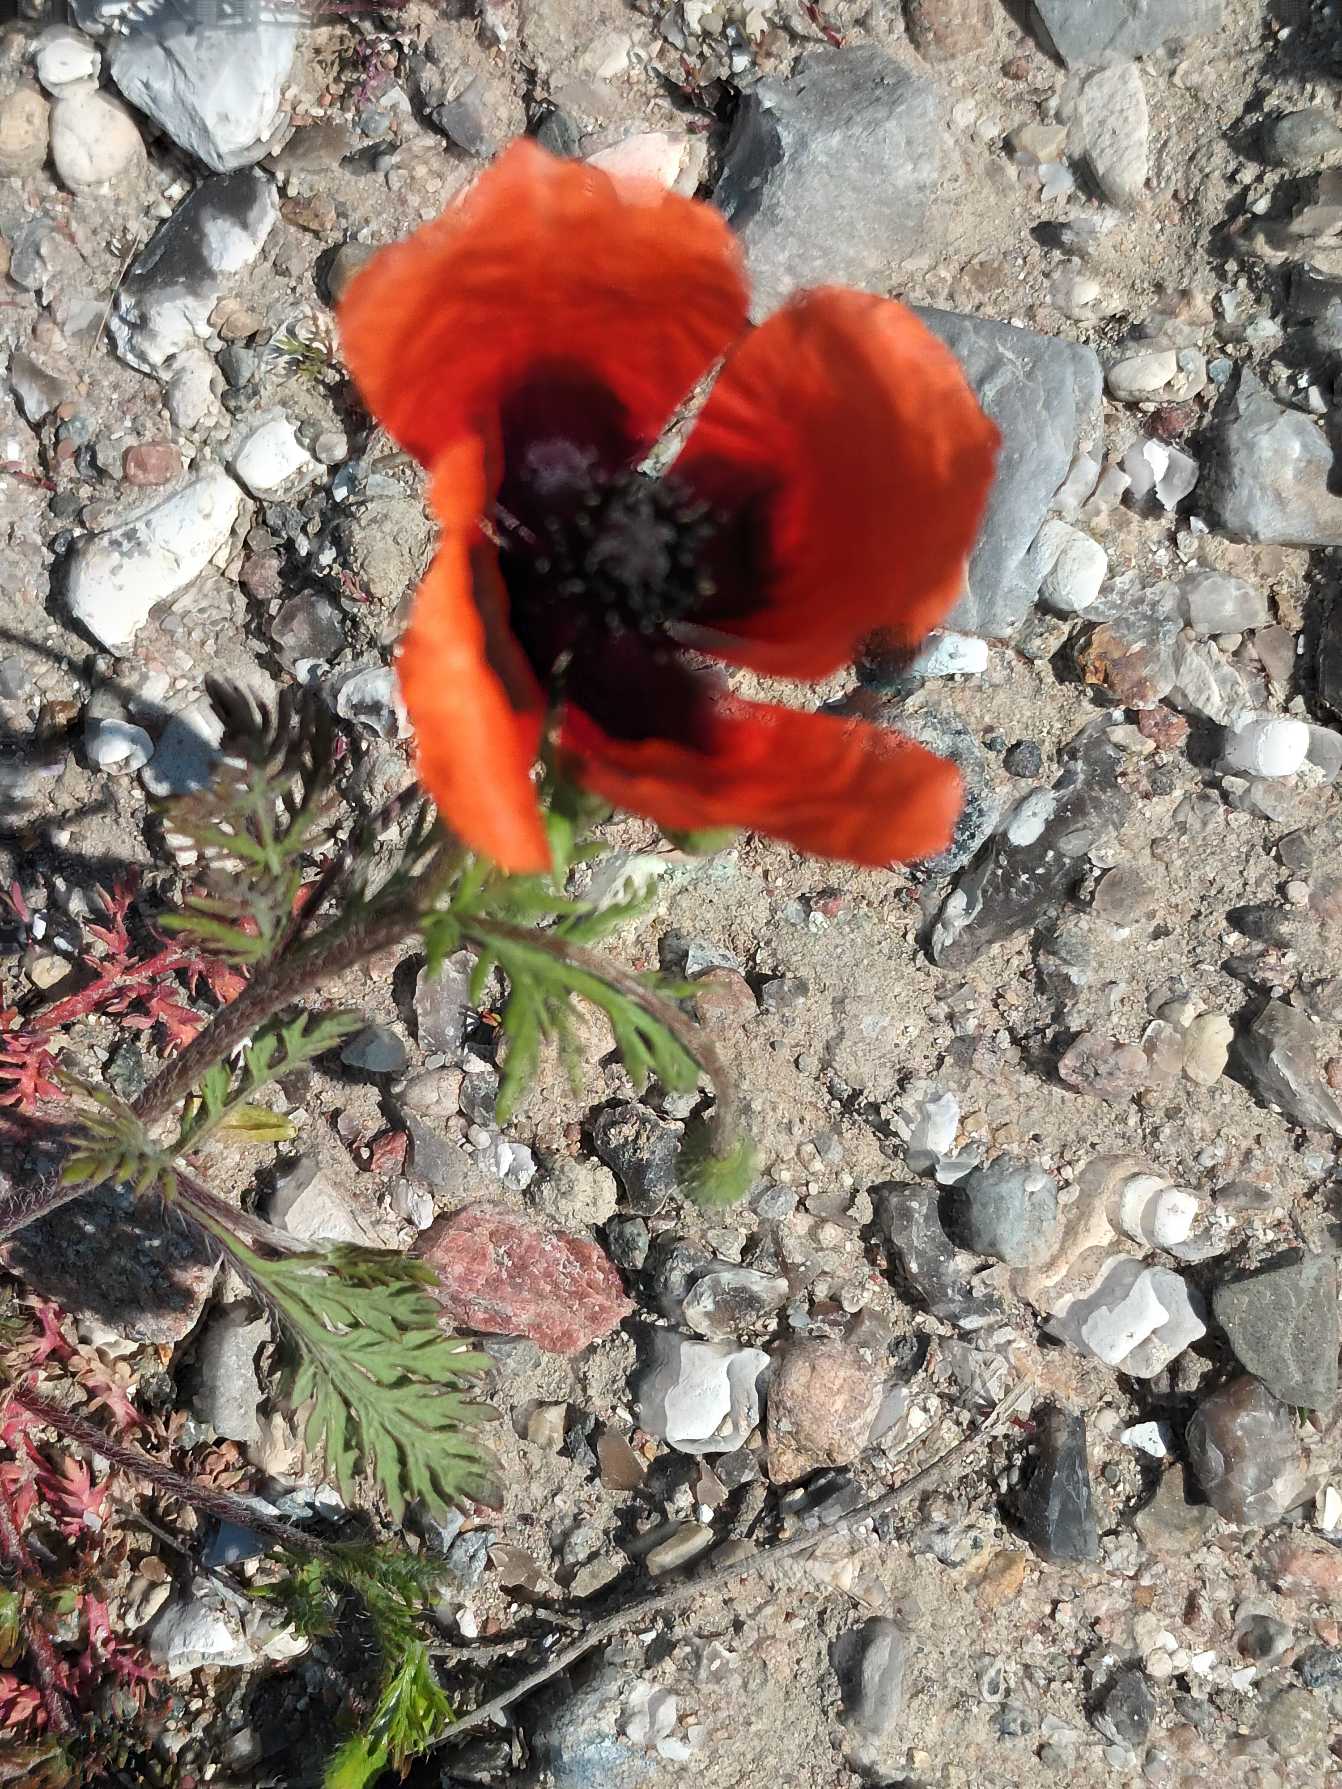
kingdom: Plantae
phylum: Tracheophyta
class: Magnoliopsida
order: Ranunculales
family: Papaveraceae
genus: Roemeria
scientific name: Roemeria argemone
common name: Kølle-valmue
